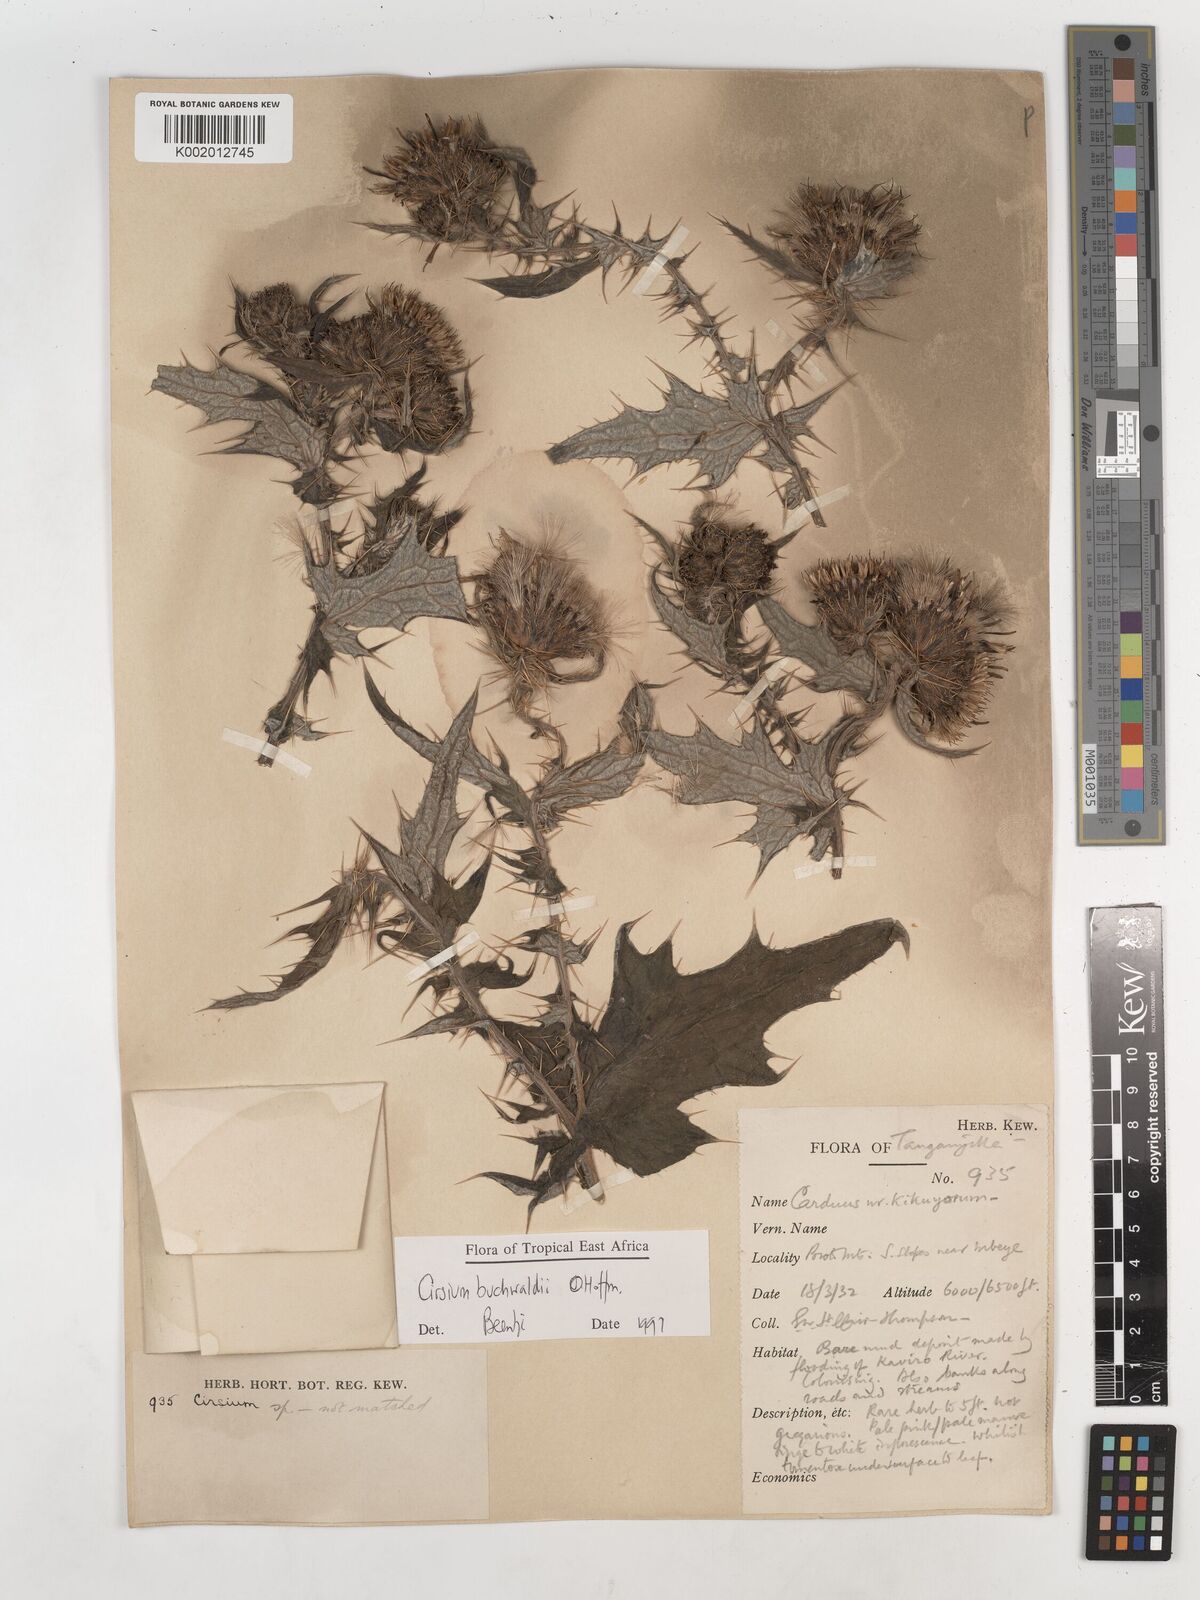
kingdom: Plantae
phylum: Tracheophyta
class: Magnoliopsida
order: Asterales
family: Asteraceae
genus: Cirsium
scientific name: Cirsium buchwaldii
